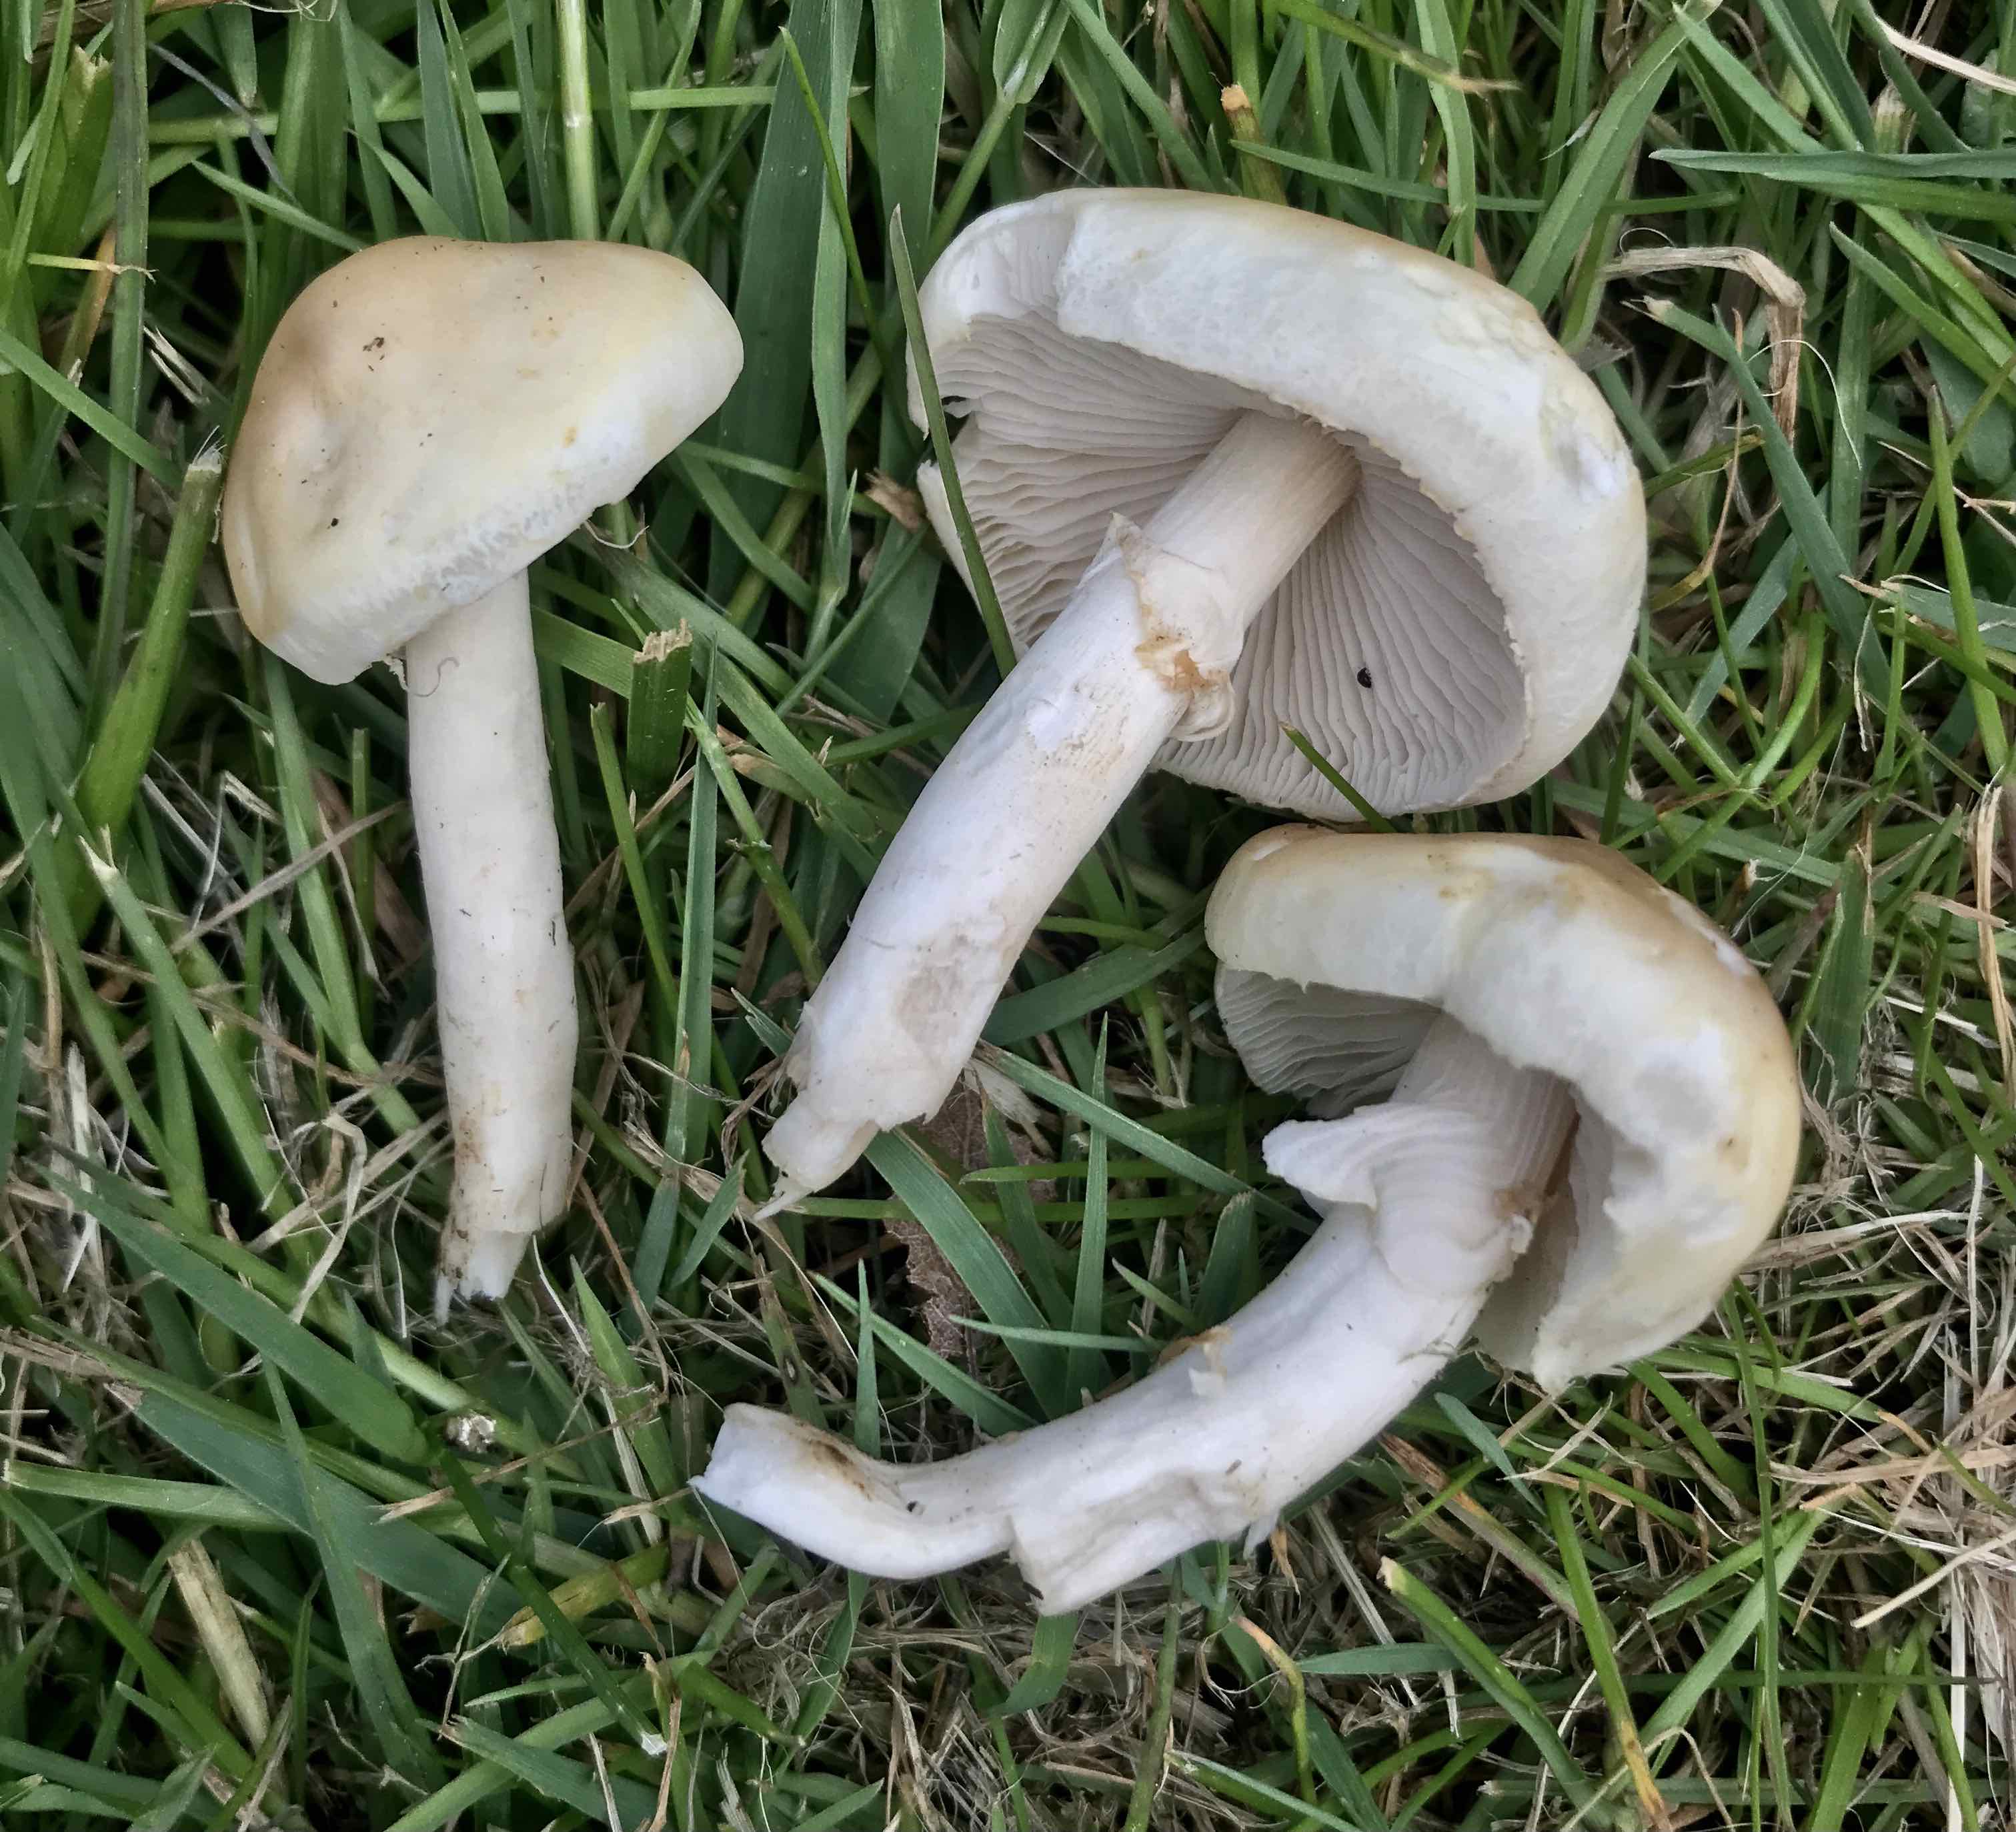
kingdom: Fungi
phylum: Basidiomycota
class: Agaricomycetes
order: Agaricales
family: Strophariaceae
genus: Agrocybe
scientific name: Agrocybe praecox
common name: tidlig agerhat
